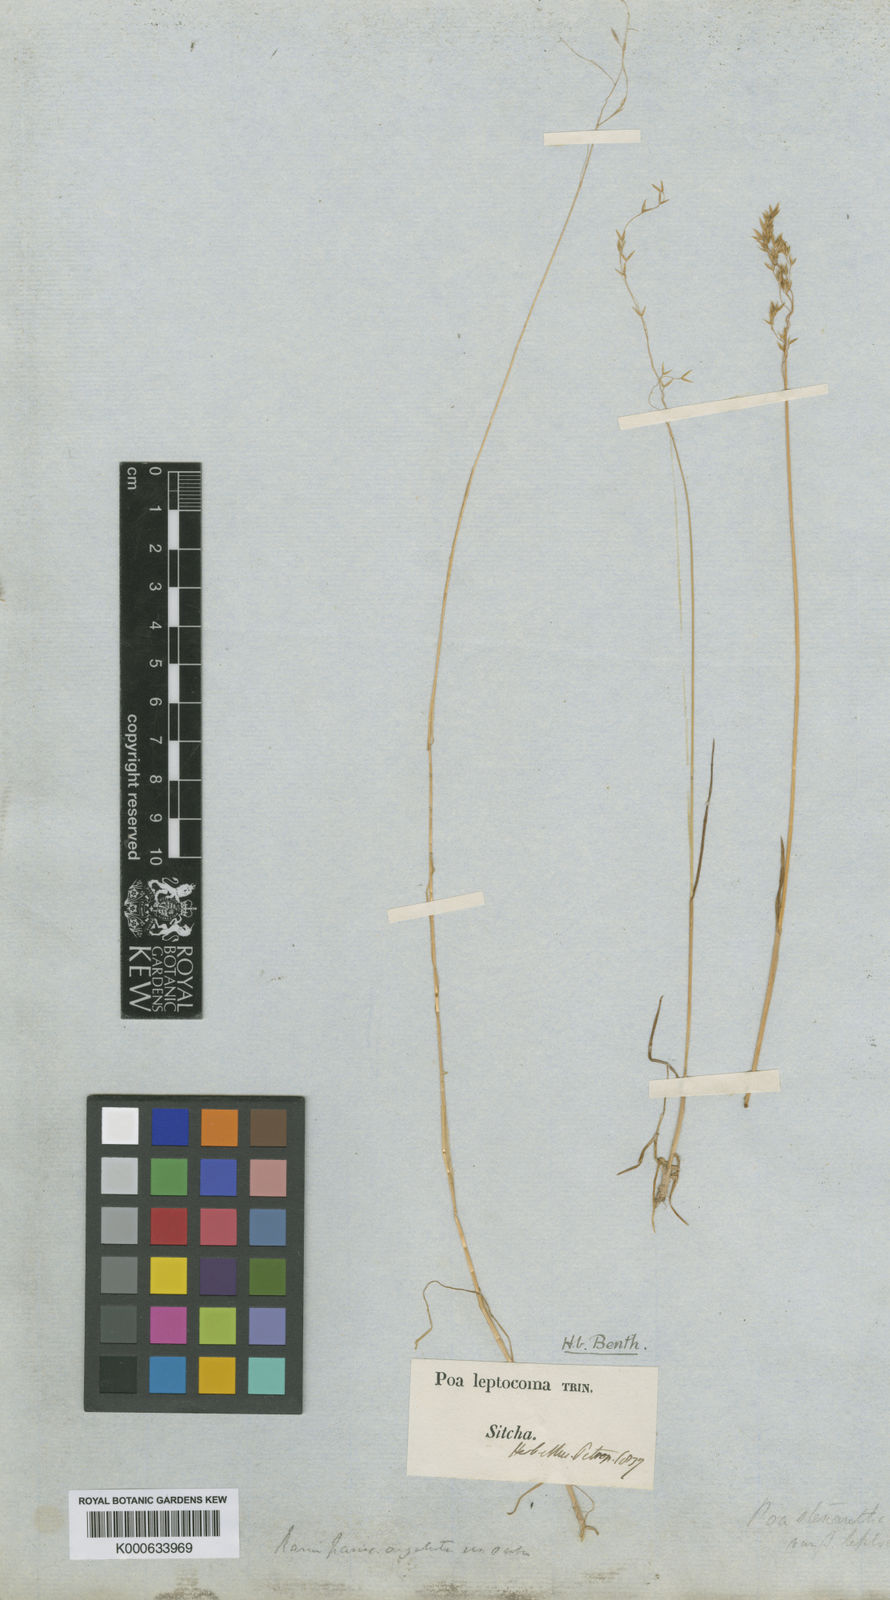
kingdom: Plantae
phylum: Tracheophyta
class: Liliopsida
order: Poales
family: Poaceae
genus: Poa
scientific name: Poa leptocoma
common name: Bog bluegrass
